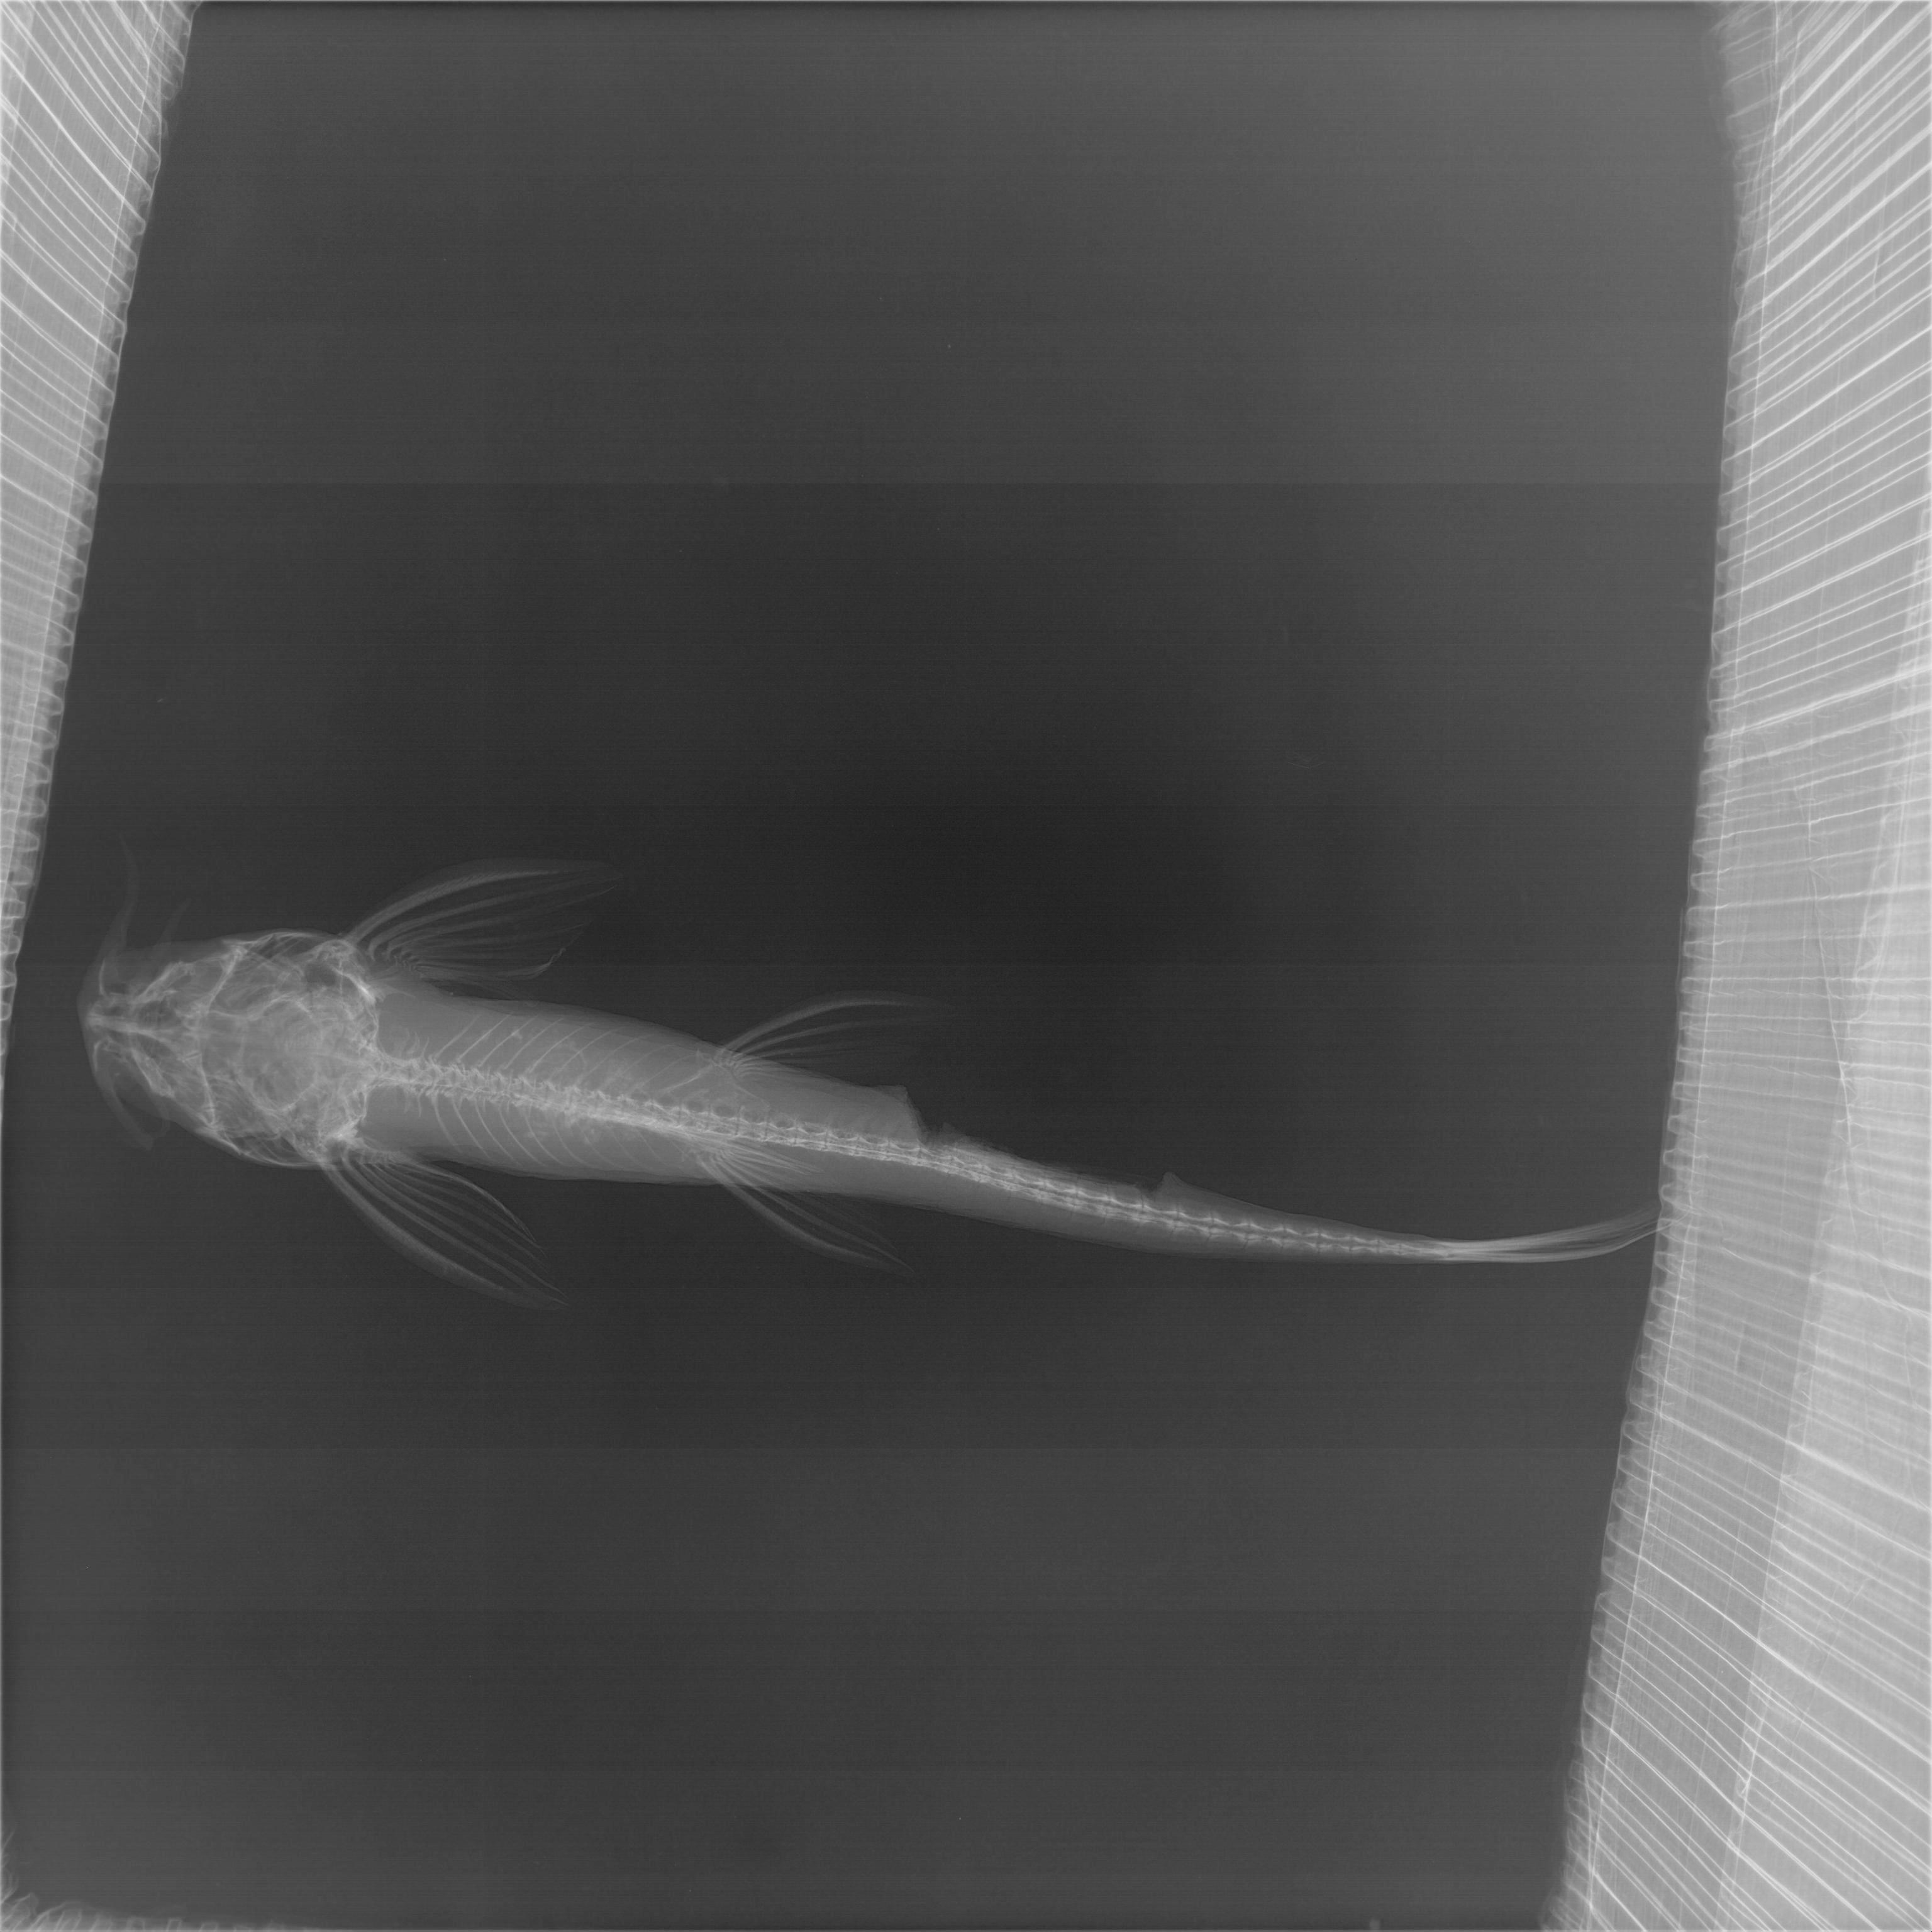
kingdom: Animalia
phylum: Chordata
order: Siluriformes
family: Amphiliidae
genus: Doumea
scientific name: Doumea
